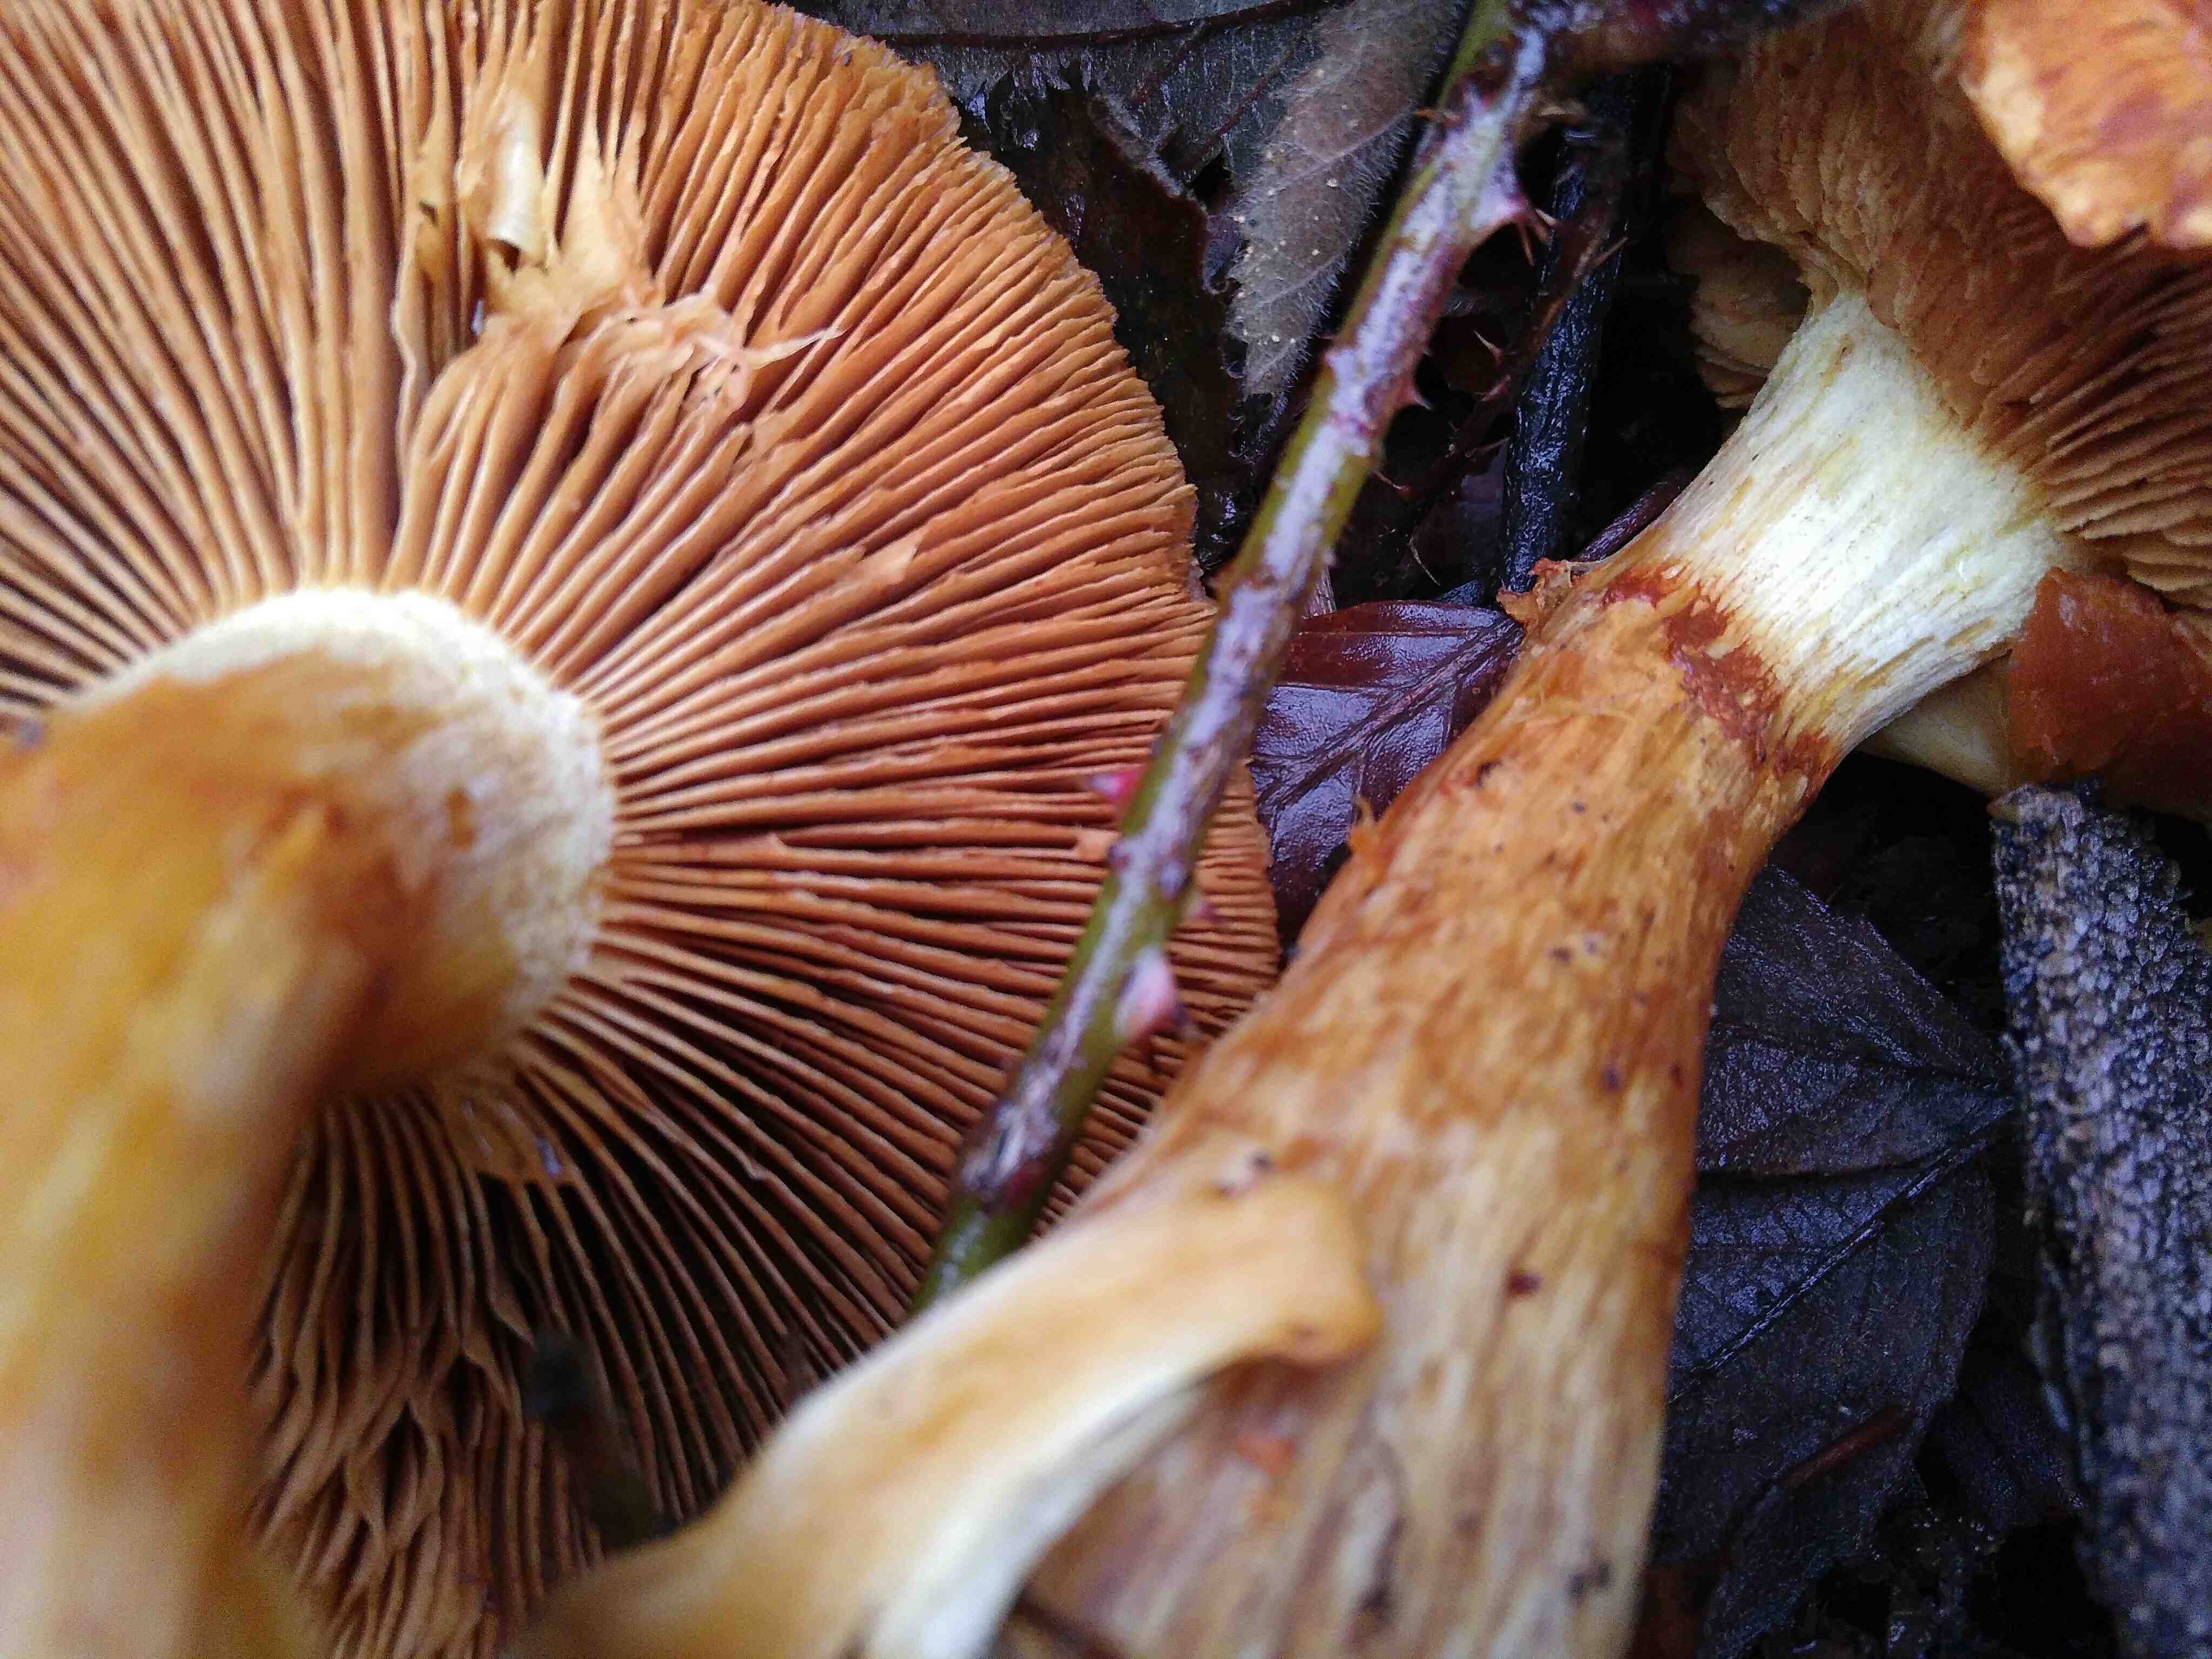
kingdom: Fungi
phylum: Basidiomycota
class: Agaricomycetes
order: Agaricales
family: Hymenogastraceae
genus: Gymnopilus
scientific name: Gymnopilus penetrans
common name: plettet flammehat
